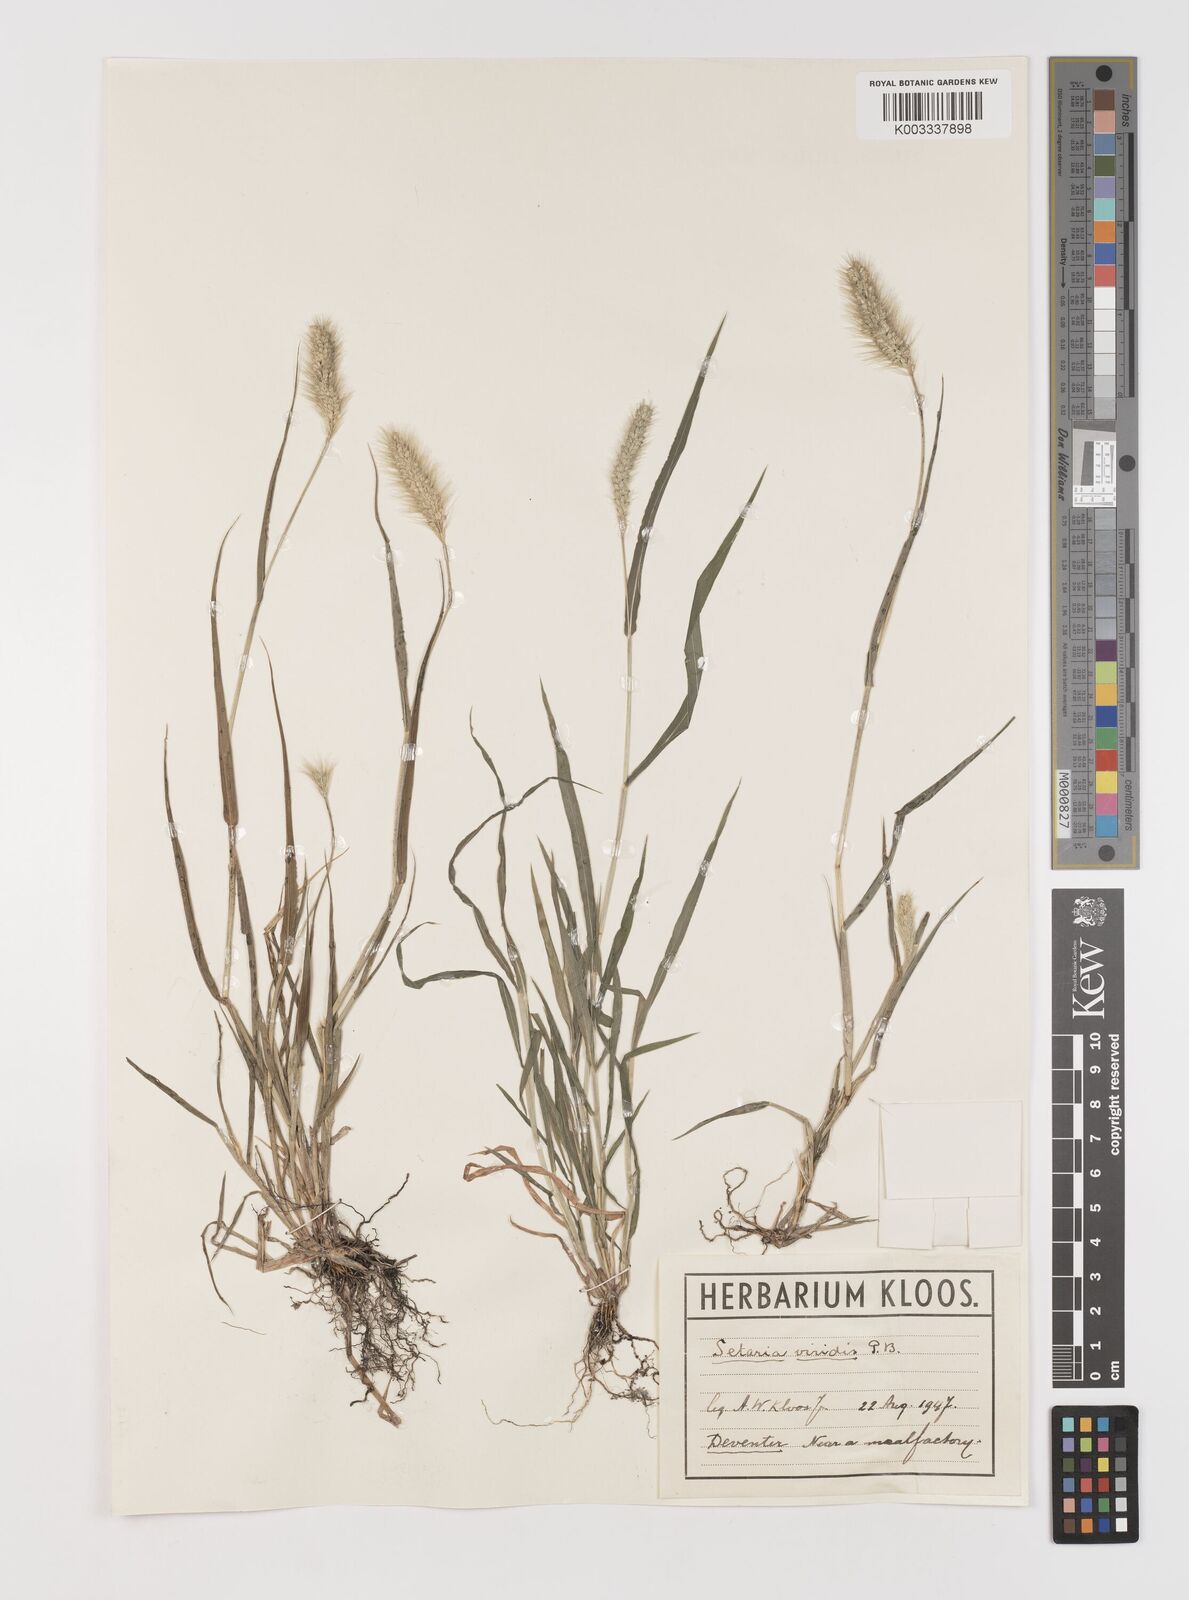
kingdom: Plantae
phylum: Tracheophyta
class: Liliopsida
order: Poales
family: Poaceae
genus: Setaria
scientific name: Setaria viridis
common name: Green bristlegrass
